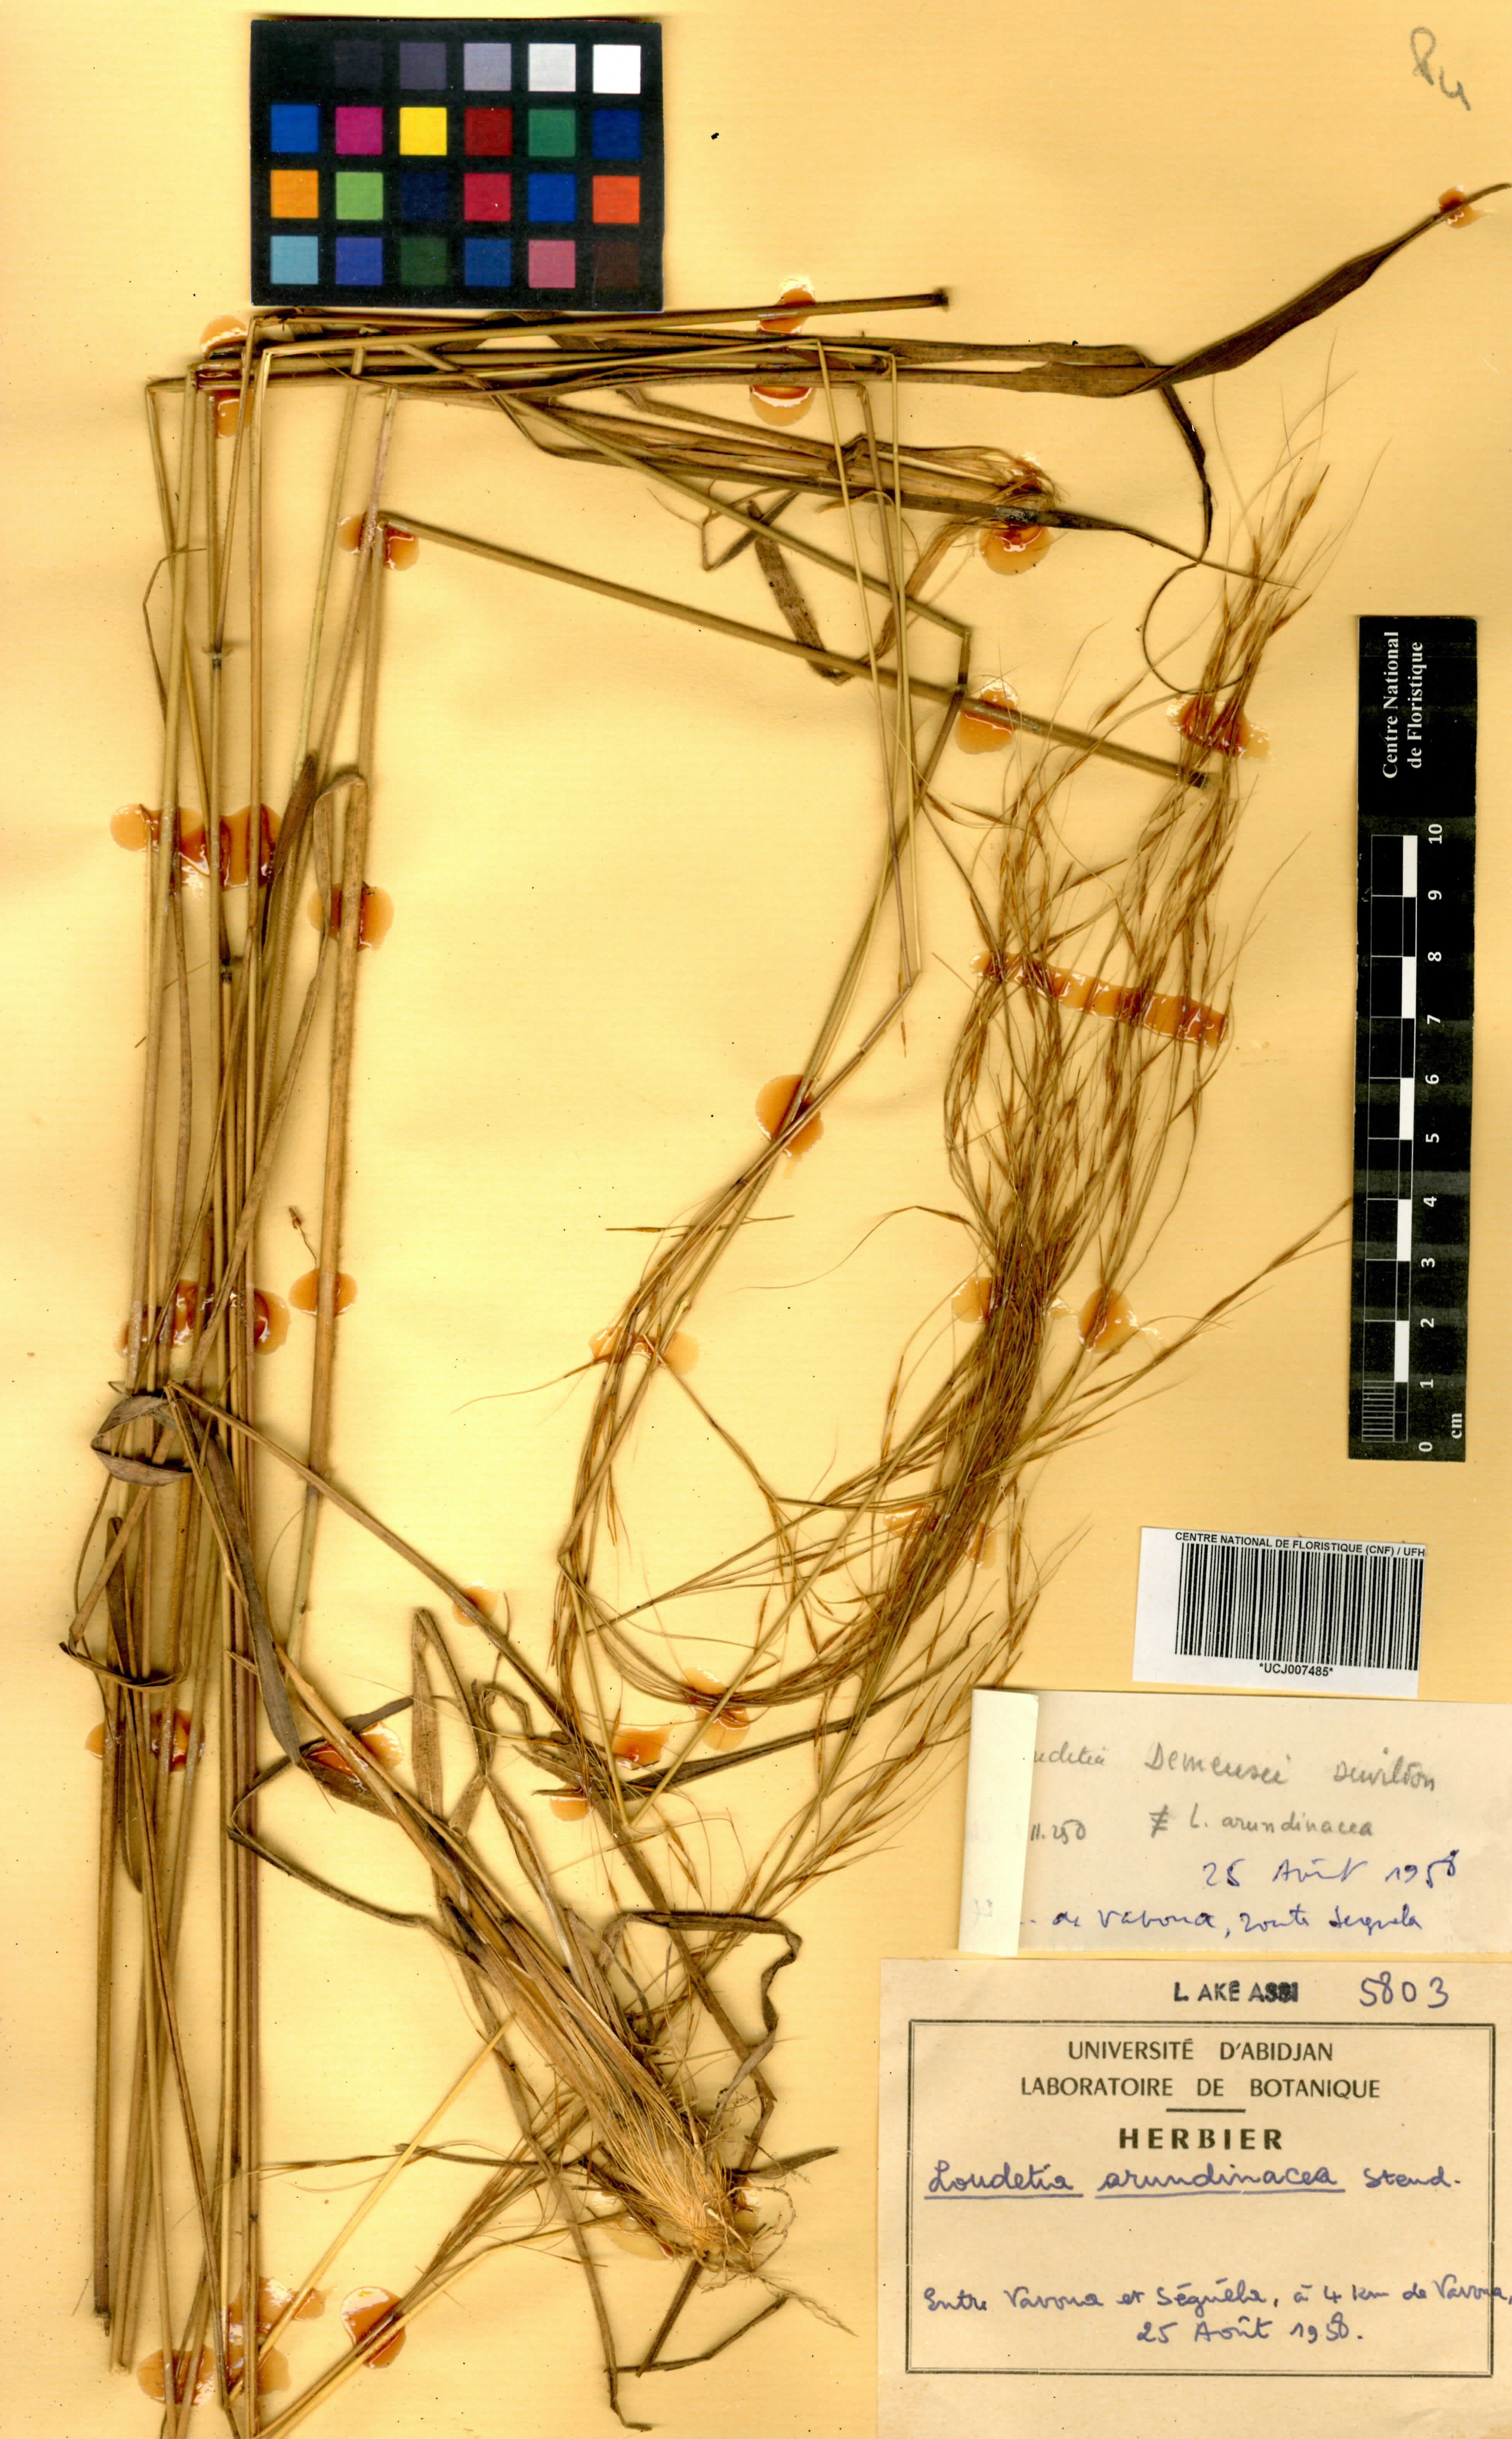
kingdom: Plantae
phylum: Tracheophyta
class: Liliopsida
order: Poales
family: Poaceae
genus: Loudetia
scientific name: Loudetia arundinacea
